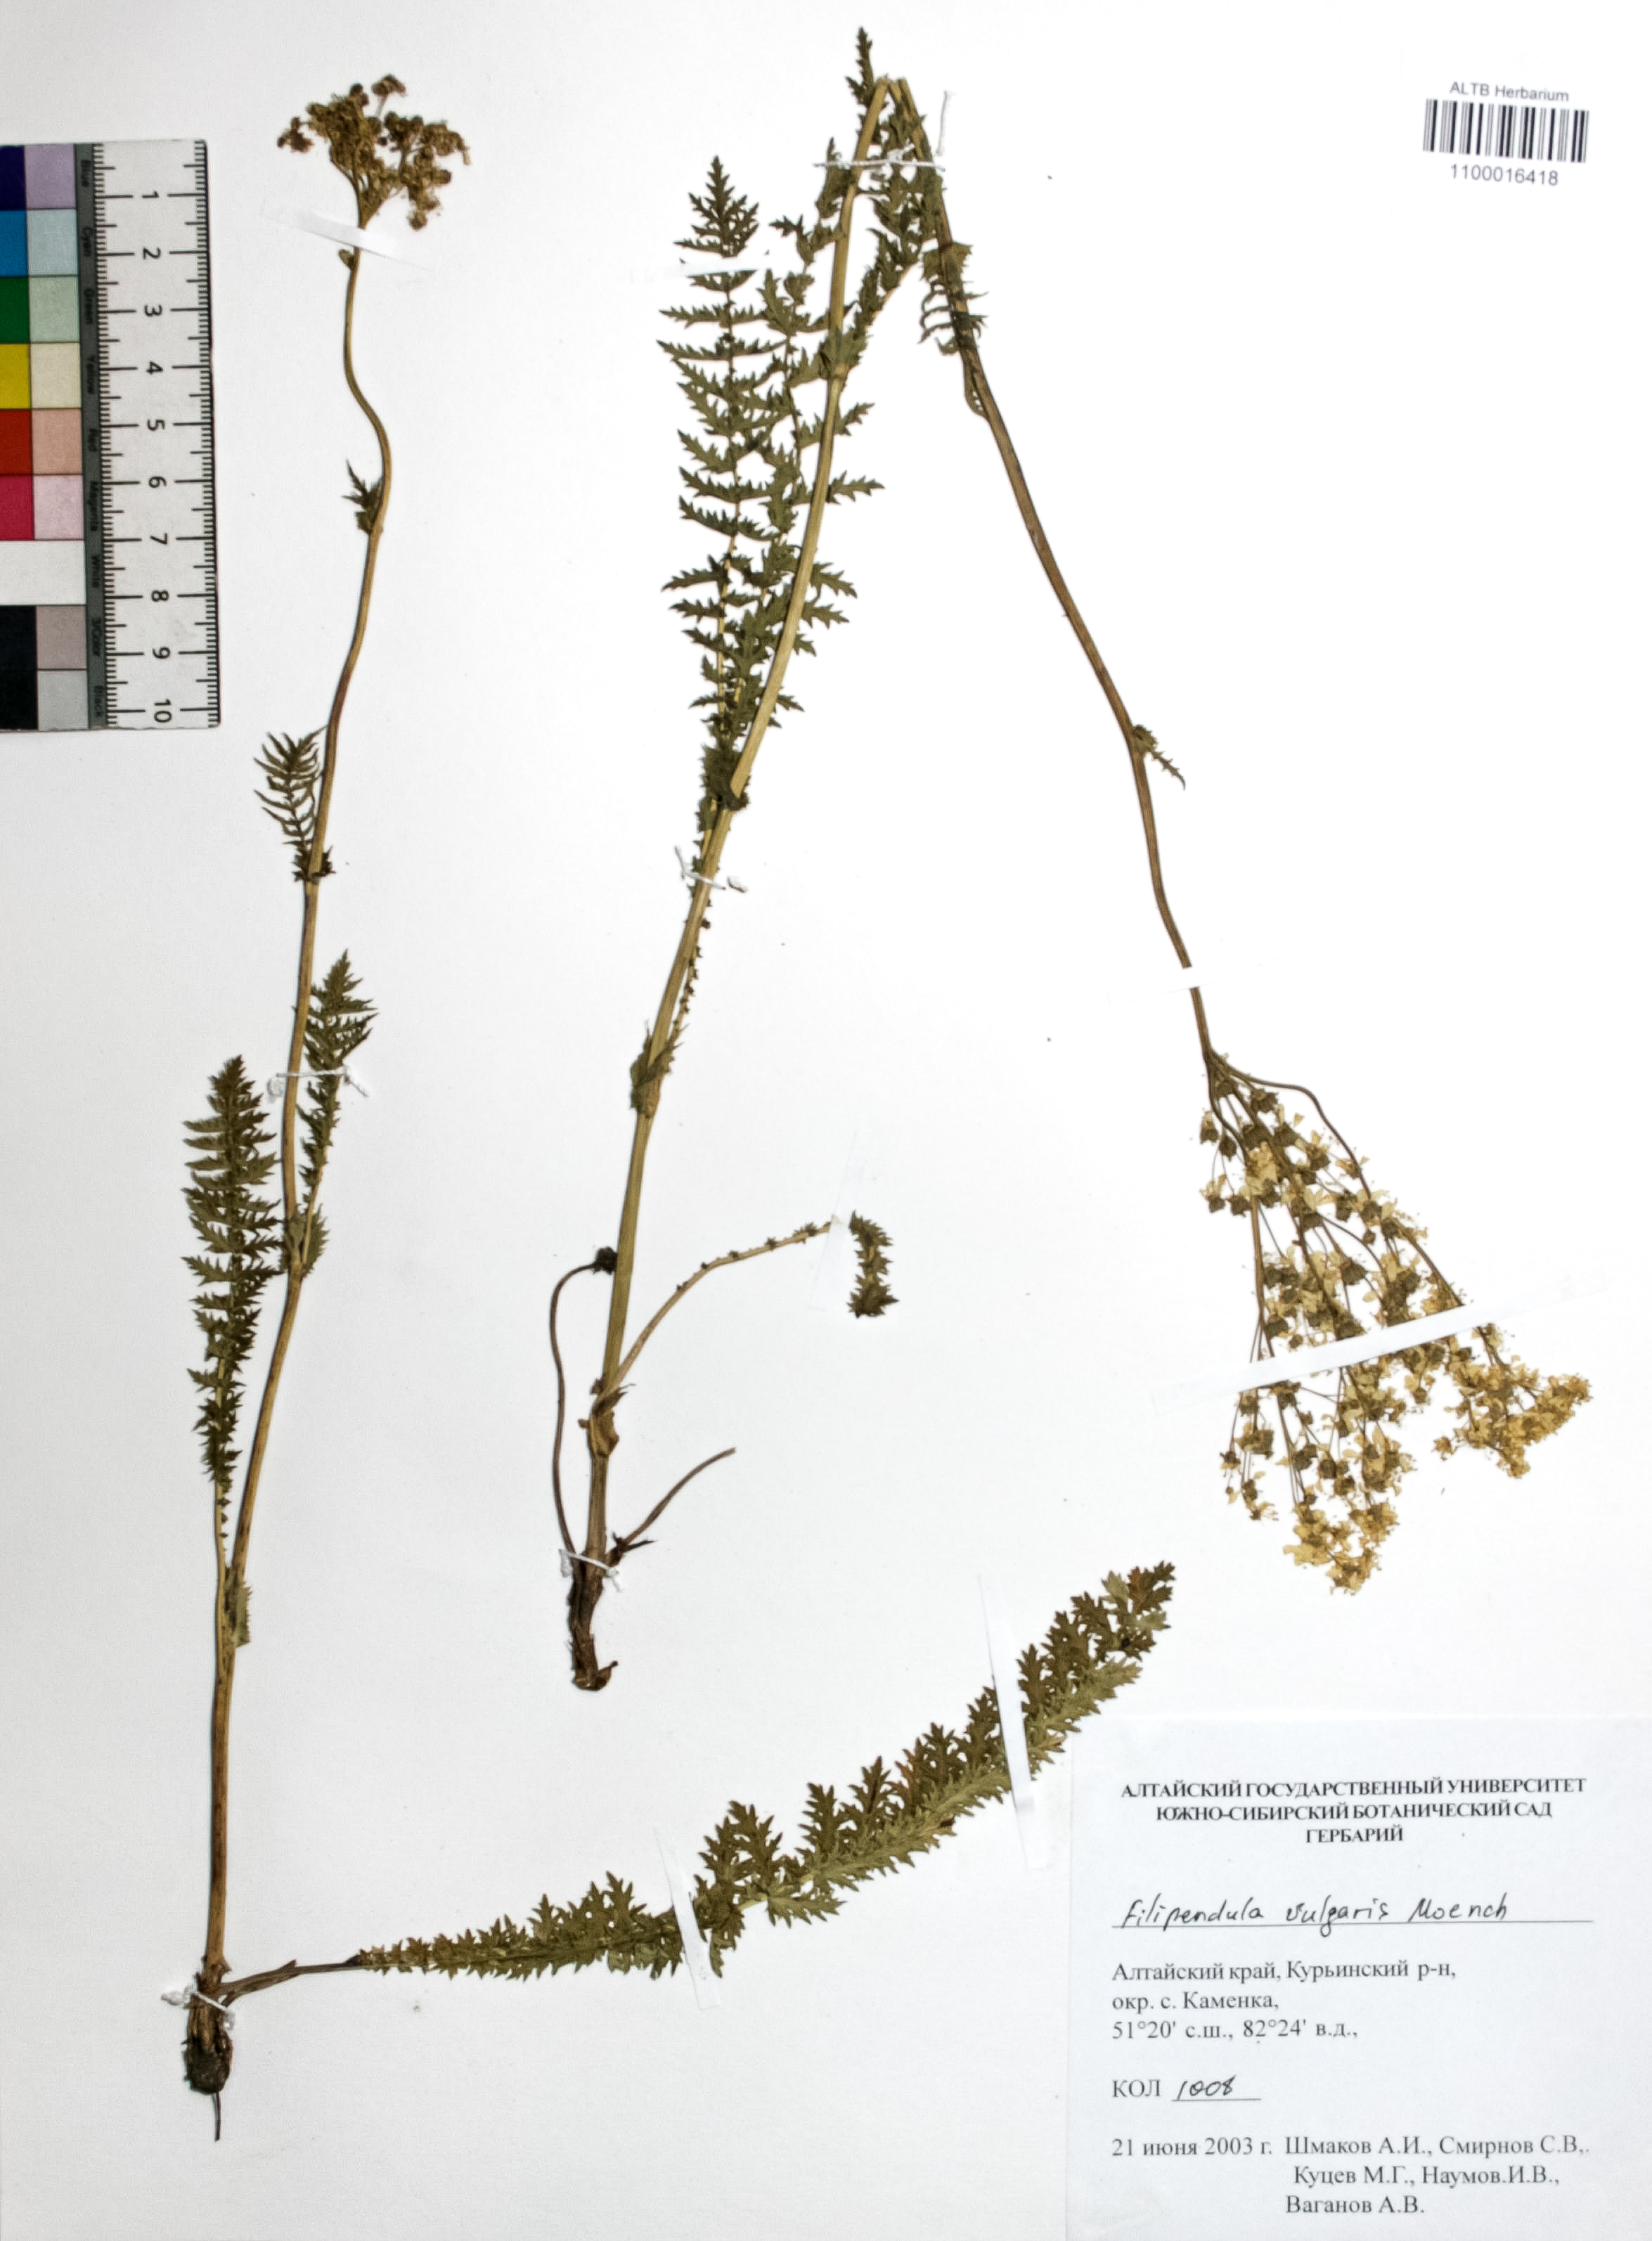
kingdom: Plantae
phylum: Tracheophyta
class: Magnoliopsida
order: Rosales
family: Rosaceae
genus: Filipendula
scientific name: Filipendula vulgaris
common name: Dropwort
